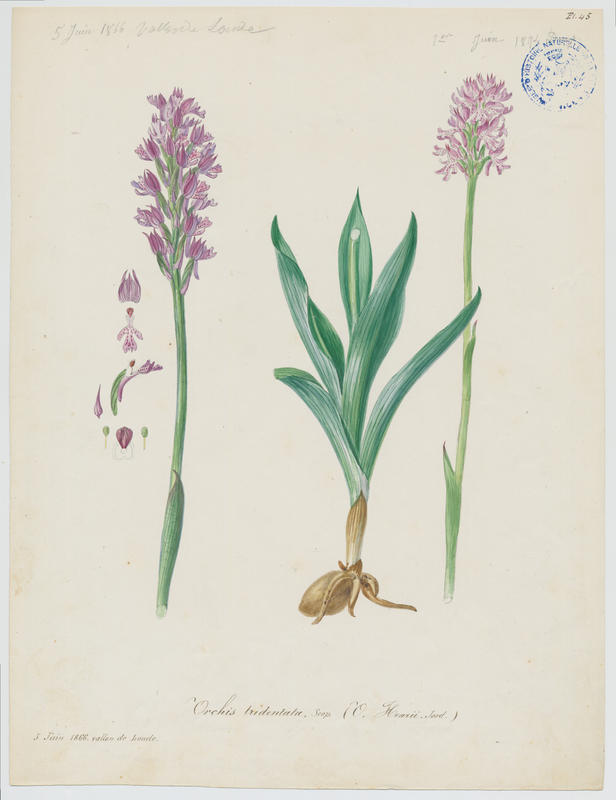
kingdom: Plantae
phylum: Tracheophyta
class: Liliopsida
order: Asparagales
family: Orchidaceae
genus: Neotinea
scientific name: Neotinea tridentata
